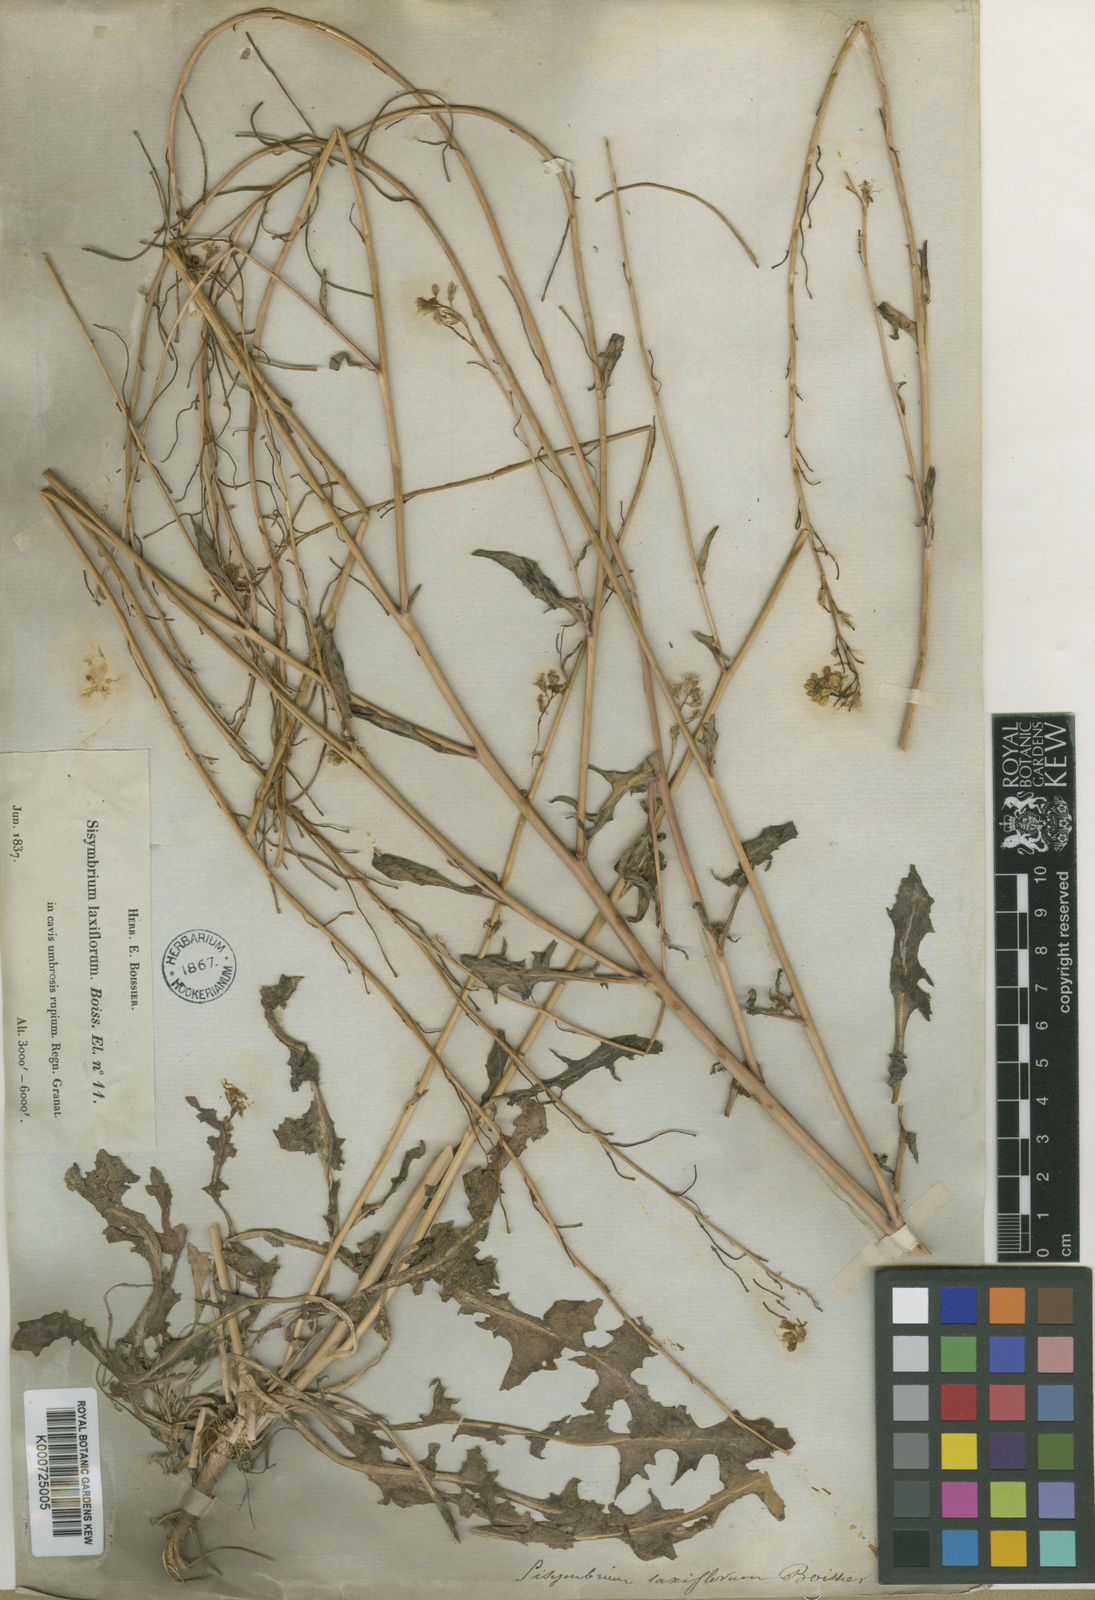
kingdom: Plantae
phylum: Tracheophyta
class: Magnoliopsida
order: Brassicales
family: Brassicaceae
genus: Sisymbrium
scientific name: Sisymbrium crassifolium
